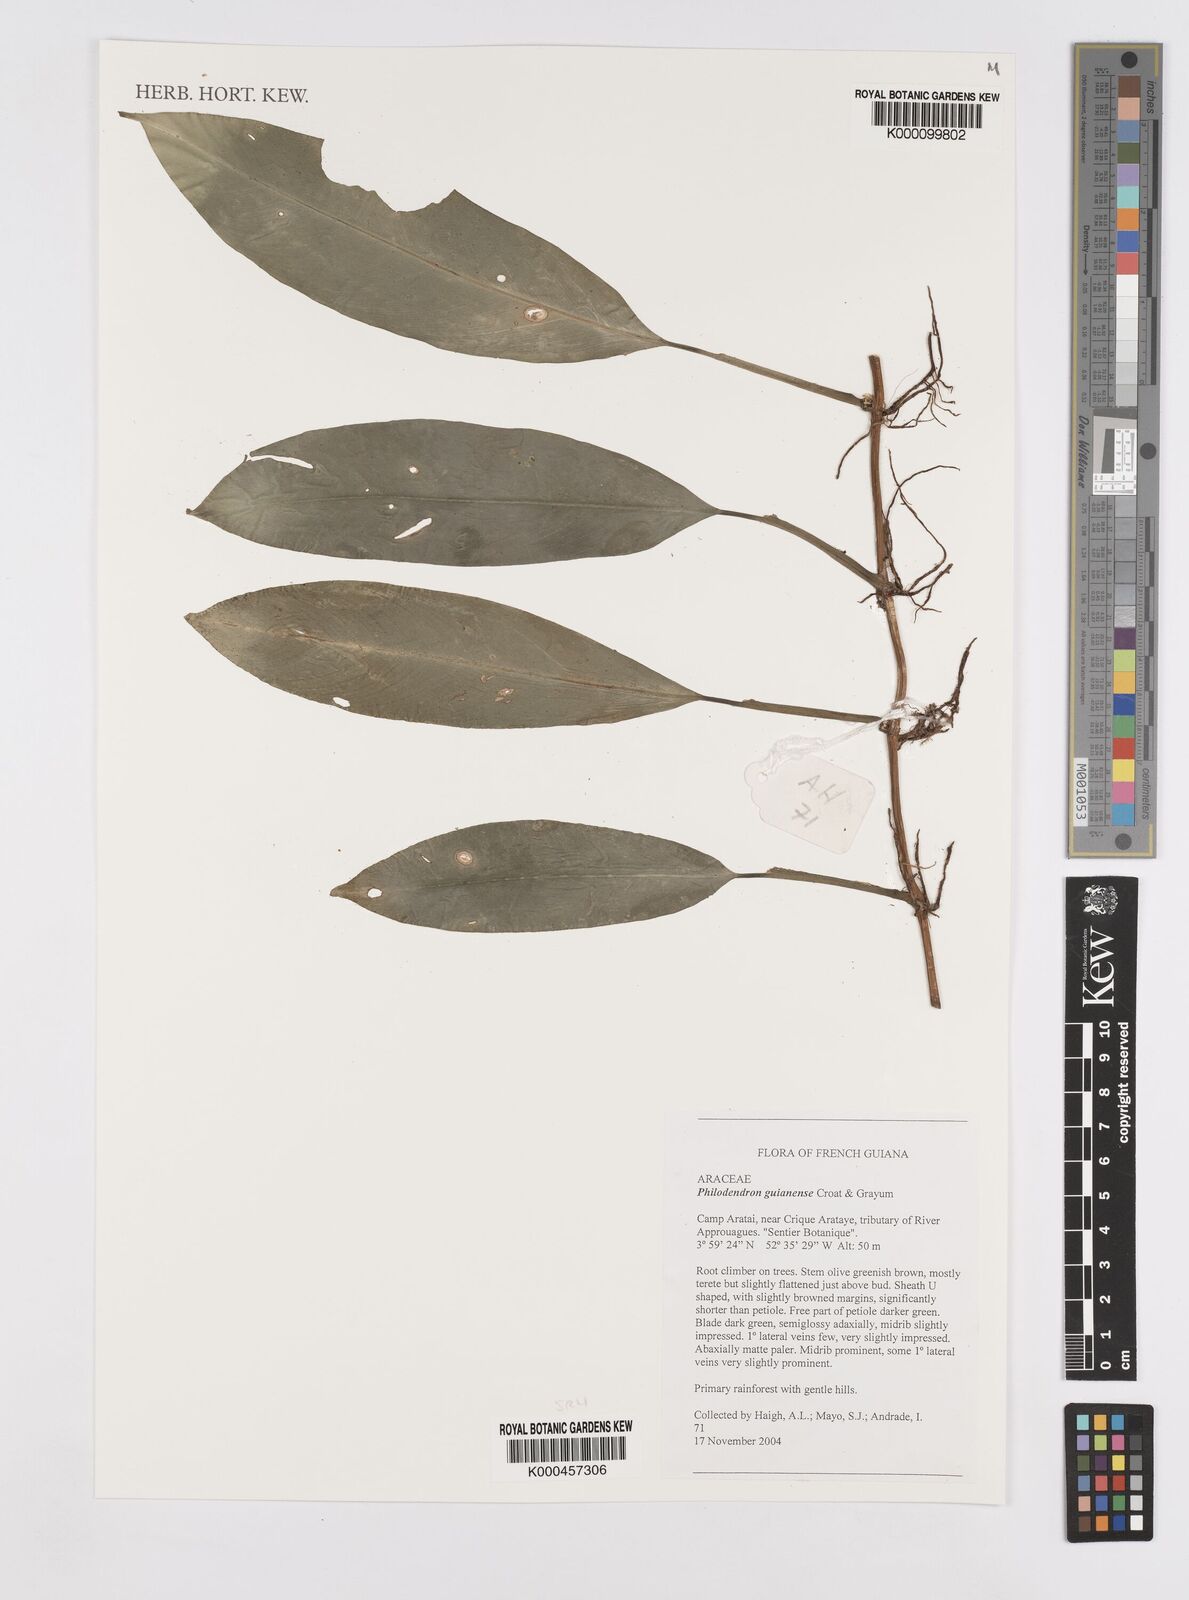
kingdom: Plantae
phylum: Tracheophyta
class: Liliopsida
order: Alismatales
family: Araceae
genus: Philodendron
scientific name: Philodendron guianense
